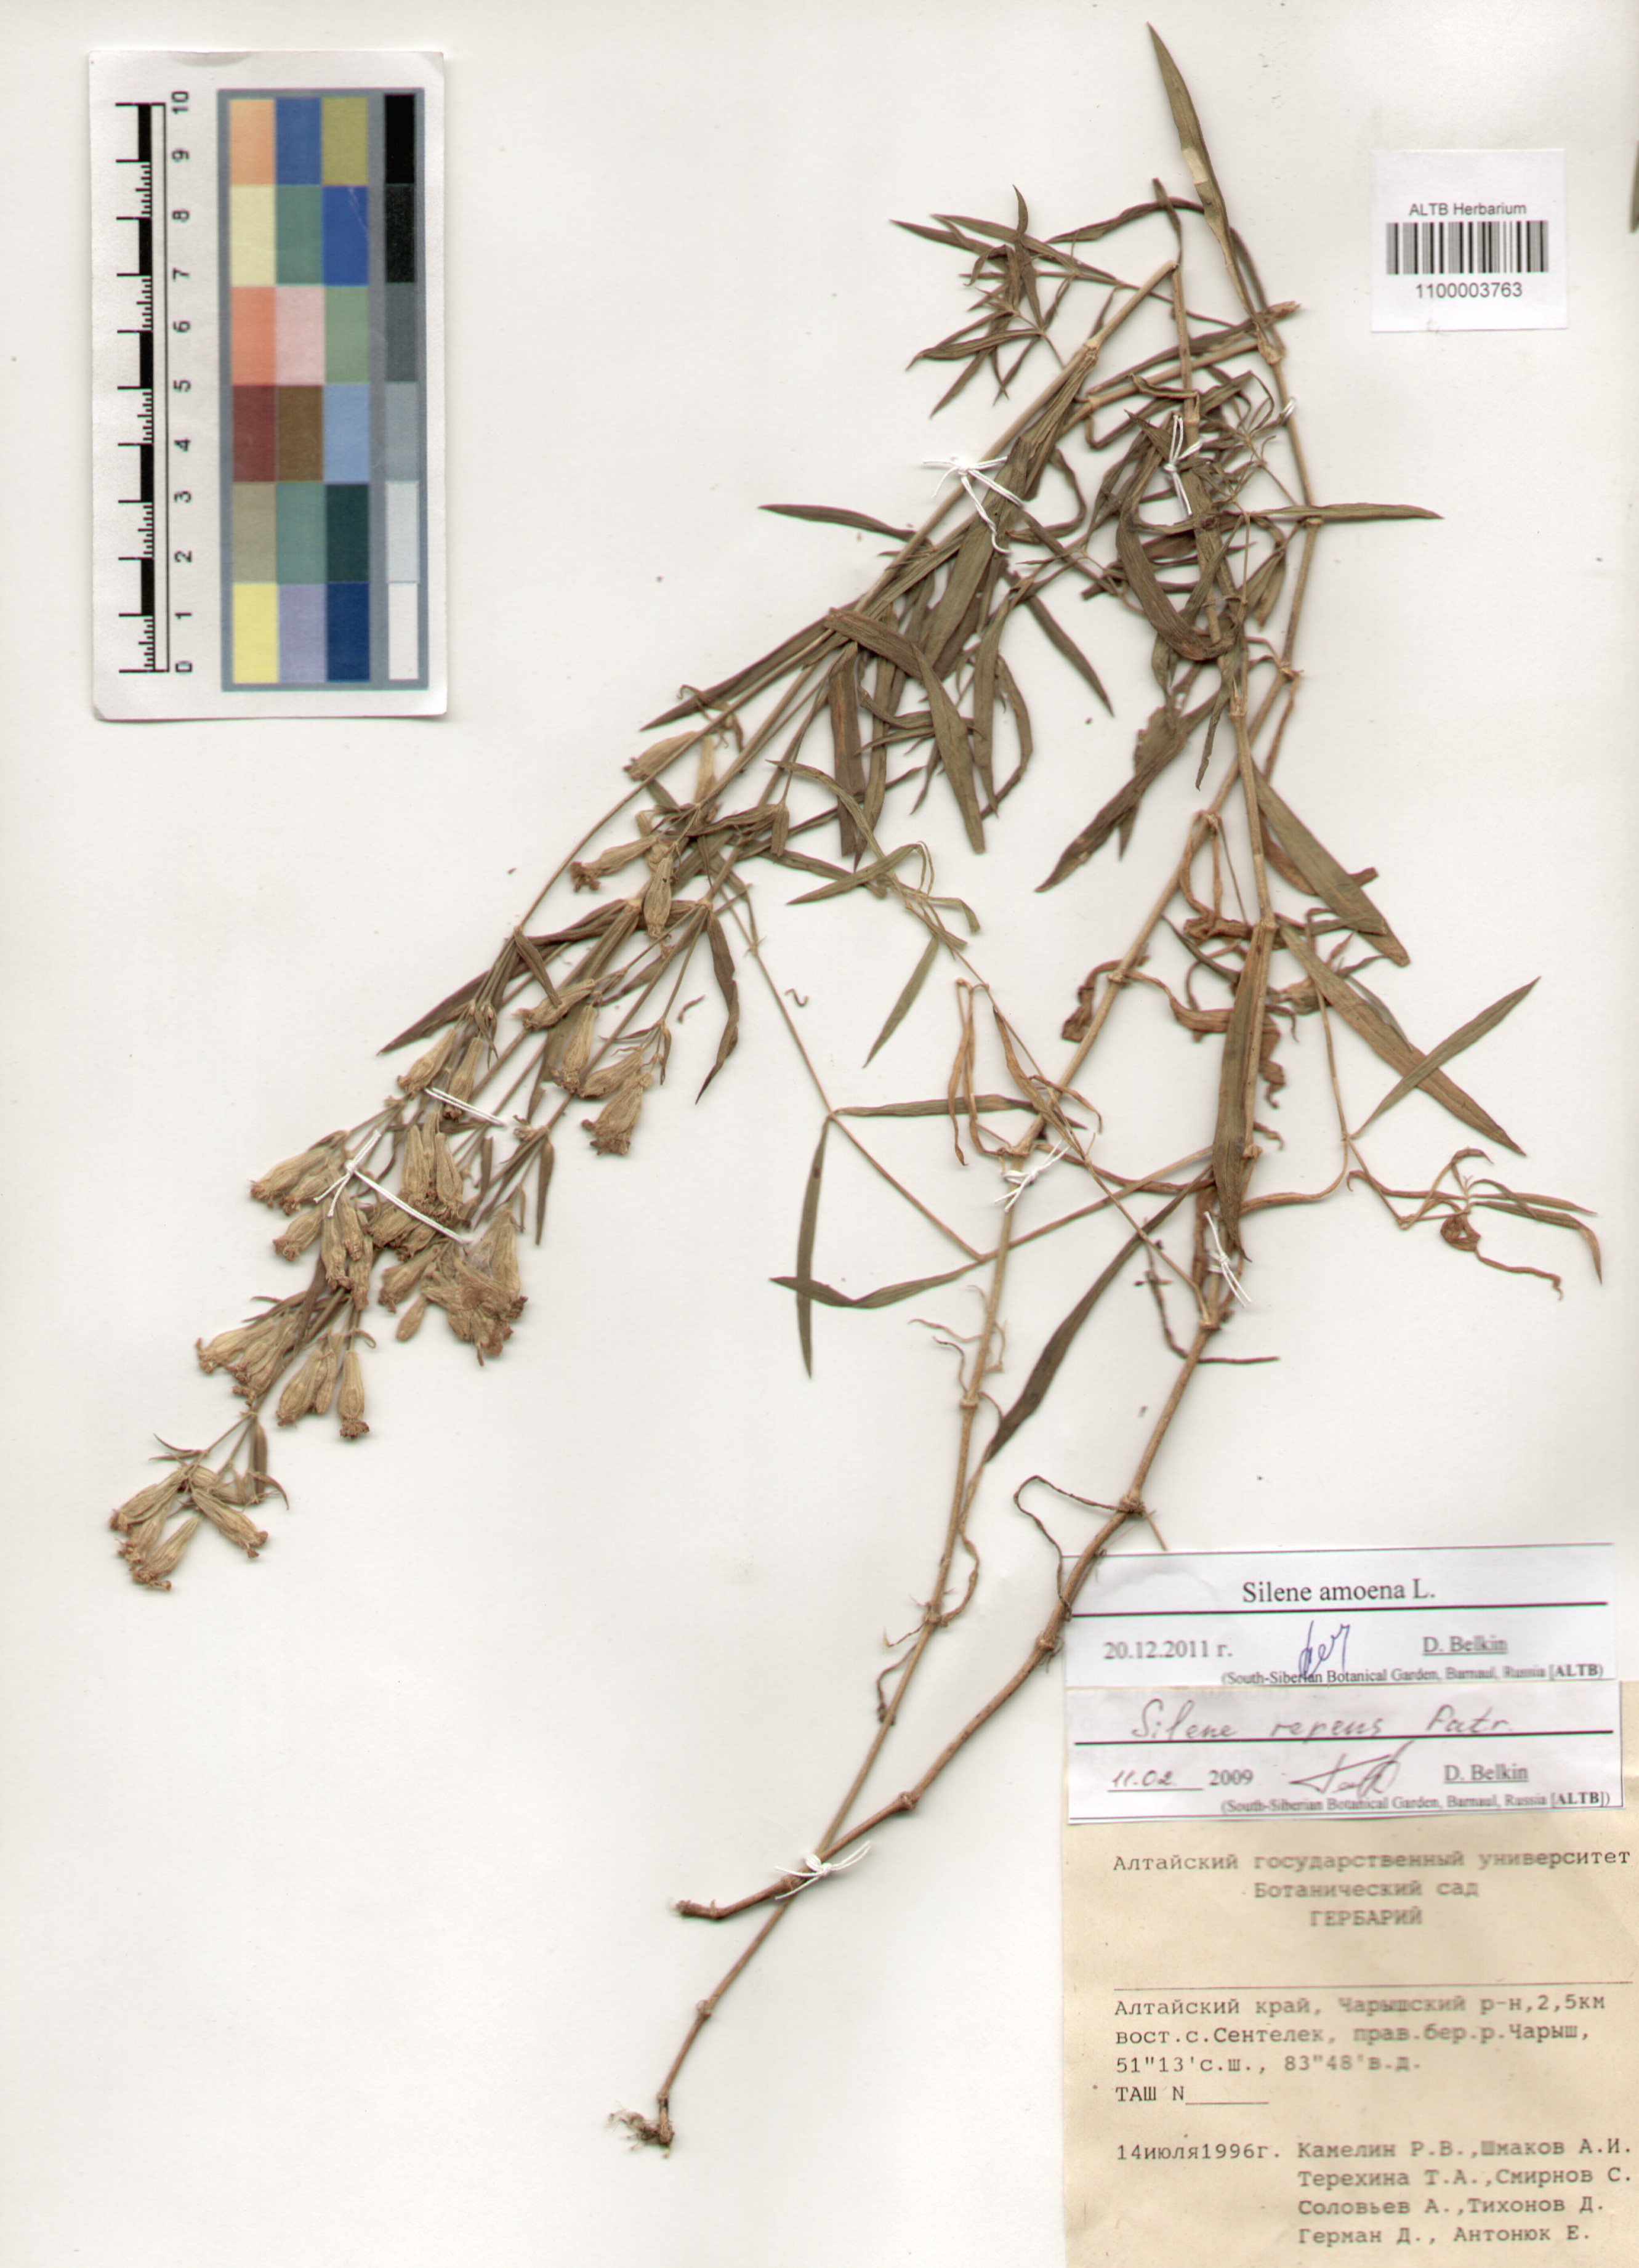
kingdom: Plantae
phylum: Tracheophyta
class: Magnoliopsida
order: Caryophyllales
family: Caryophyllaceae
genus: Silene
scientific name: Silene amoena
